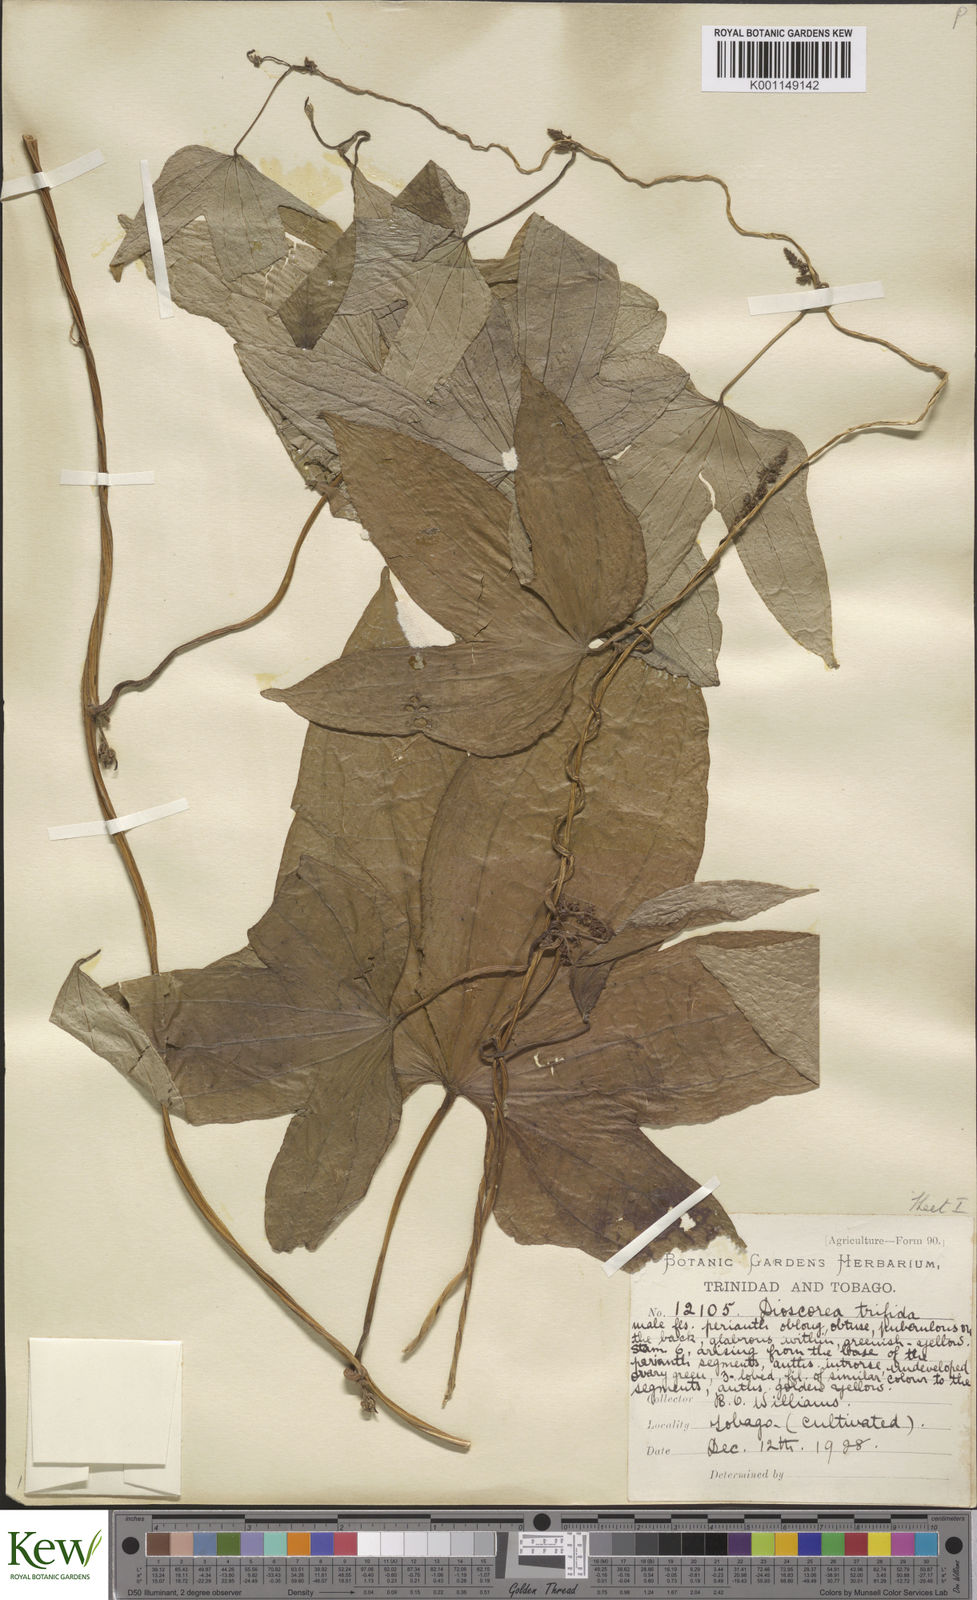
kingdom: Plantae
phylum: Tracheophyta
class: Liliopsida
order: Dioscoreales
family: Dioscoreaceae
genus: Dioscorea
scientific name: Dioscorea trifida
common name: Cush-cush
